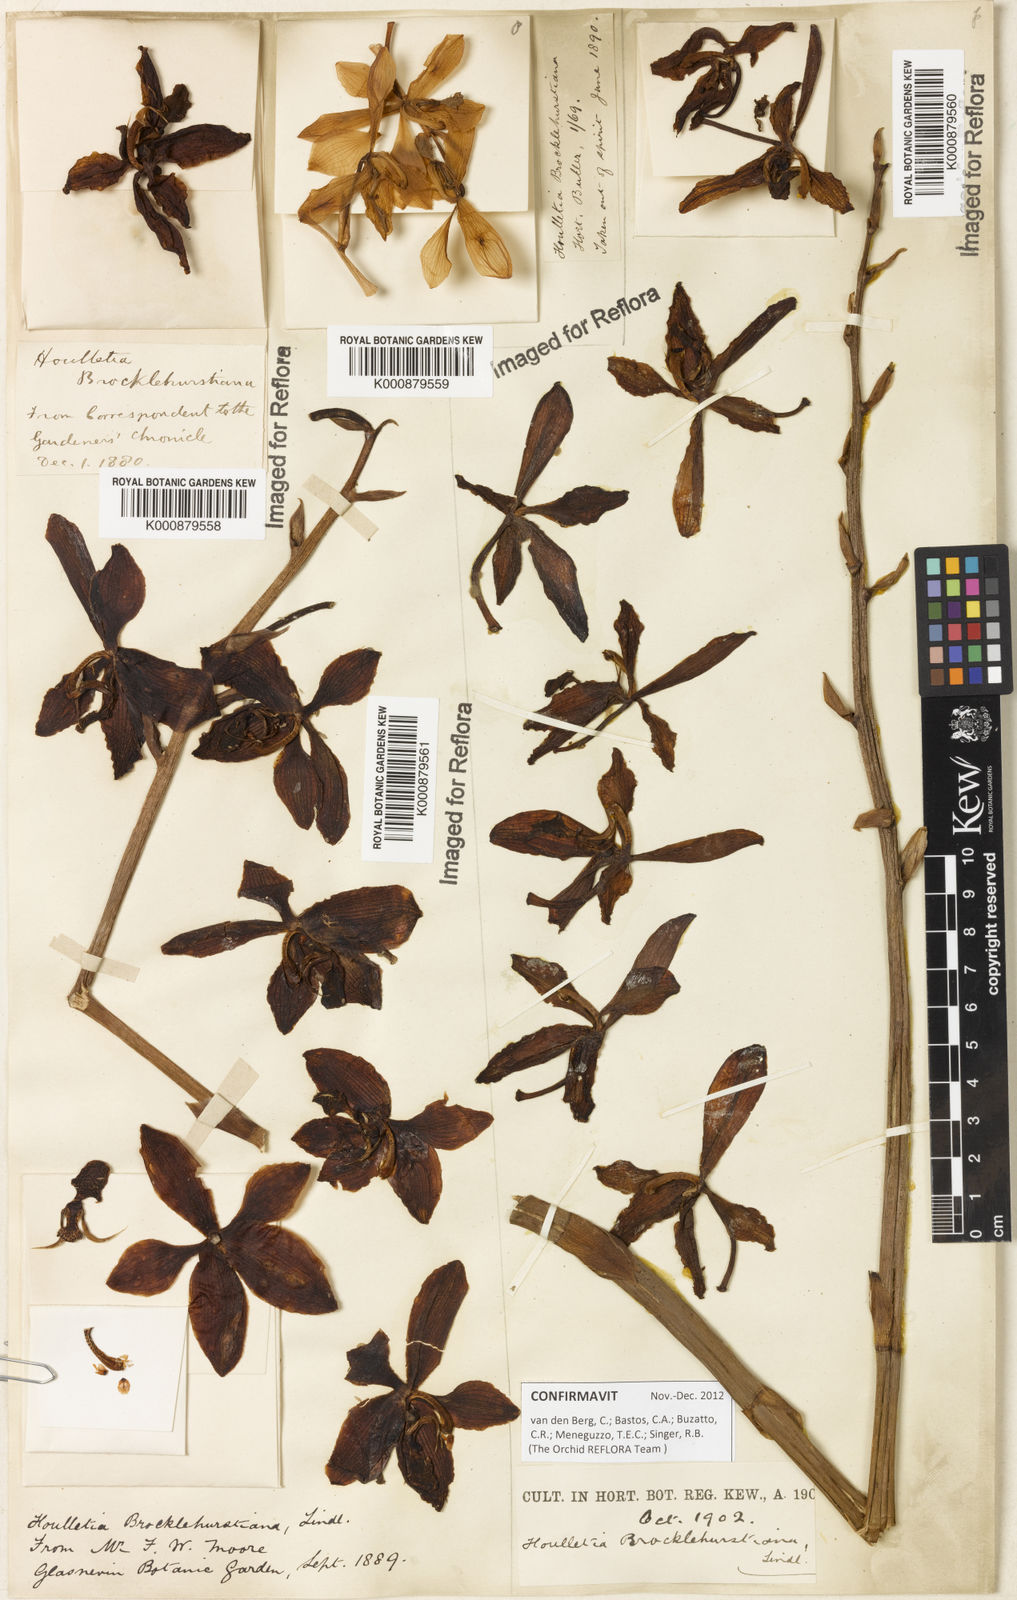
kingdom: Plantae
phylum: Tracheophyta
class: Liliopsida
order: Asparagales
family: Orchidaceae
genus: Houlletia
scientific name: Houlletia brocklehurstiana
